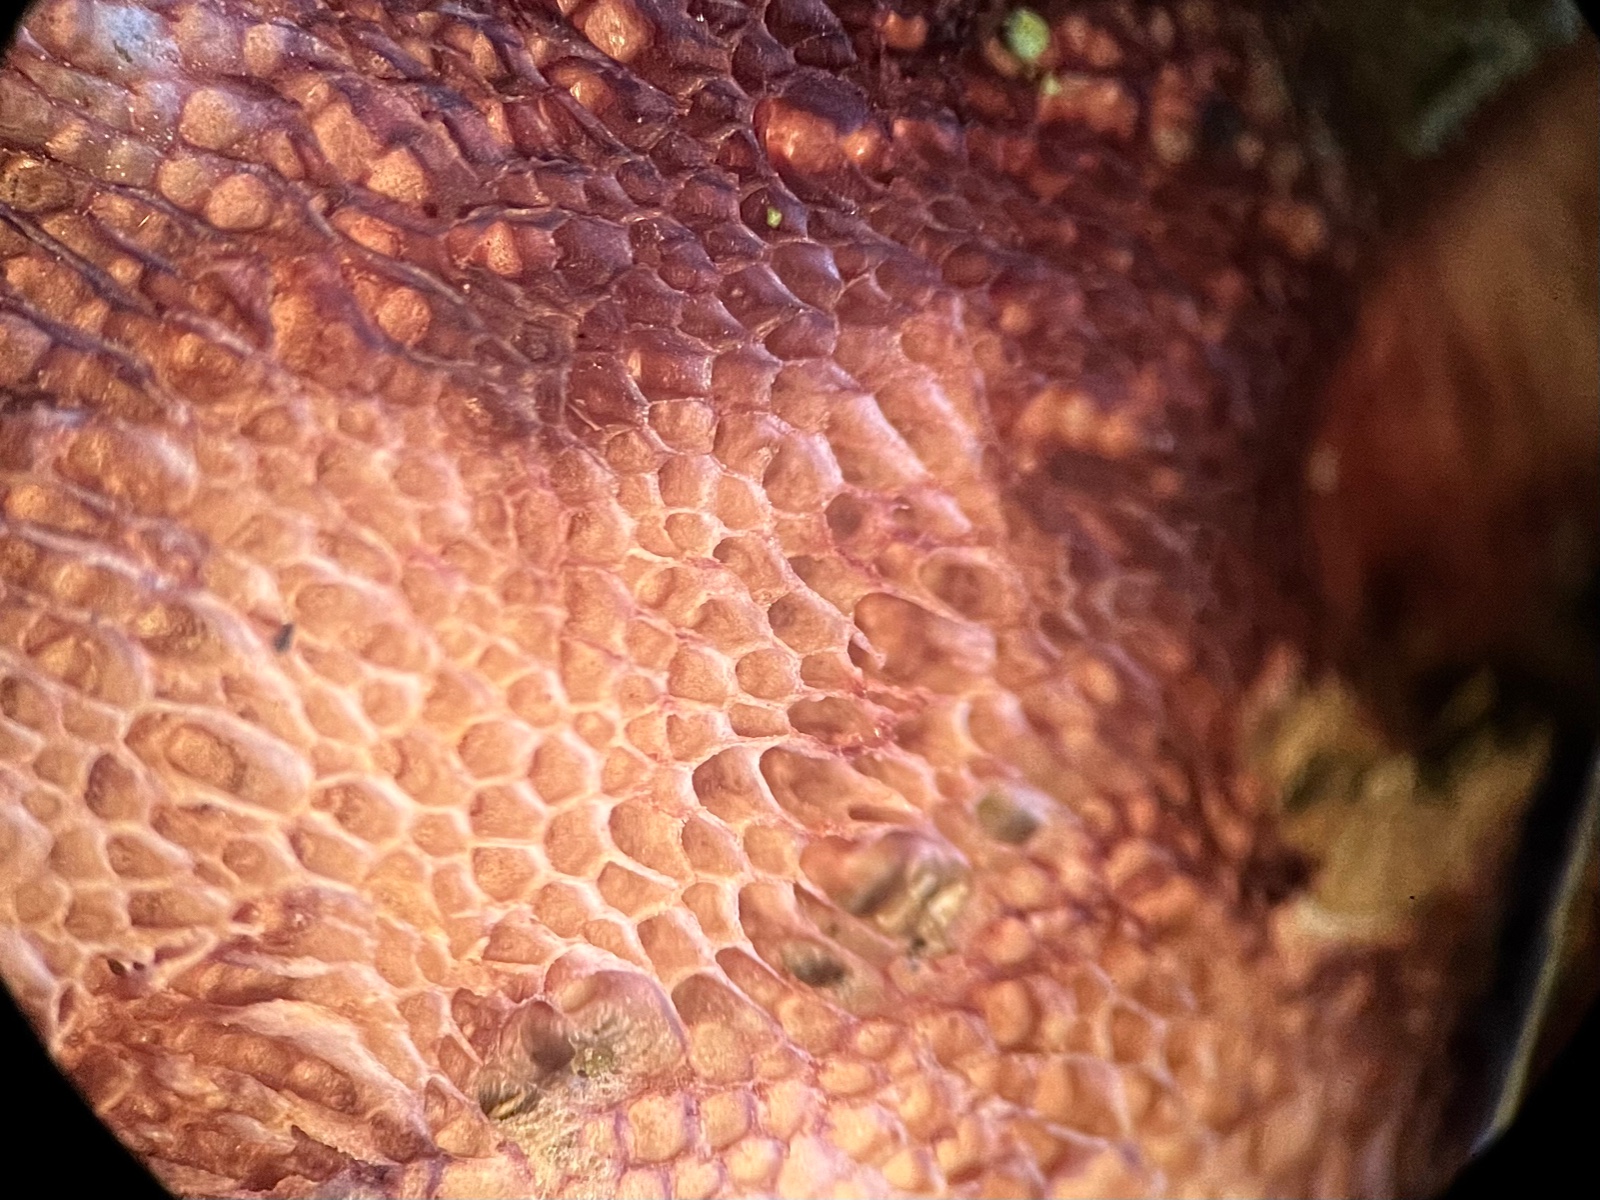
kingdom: Fungi
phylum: Basidiomycota
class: Agaricomycetes
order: Polyporales
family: Irpicaceae
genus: Ceriporia
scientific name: Ceriporia
